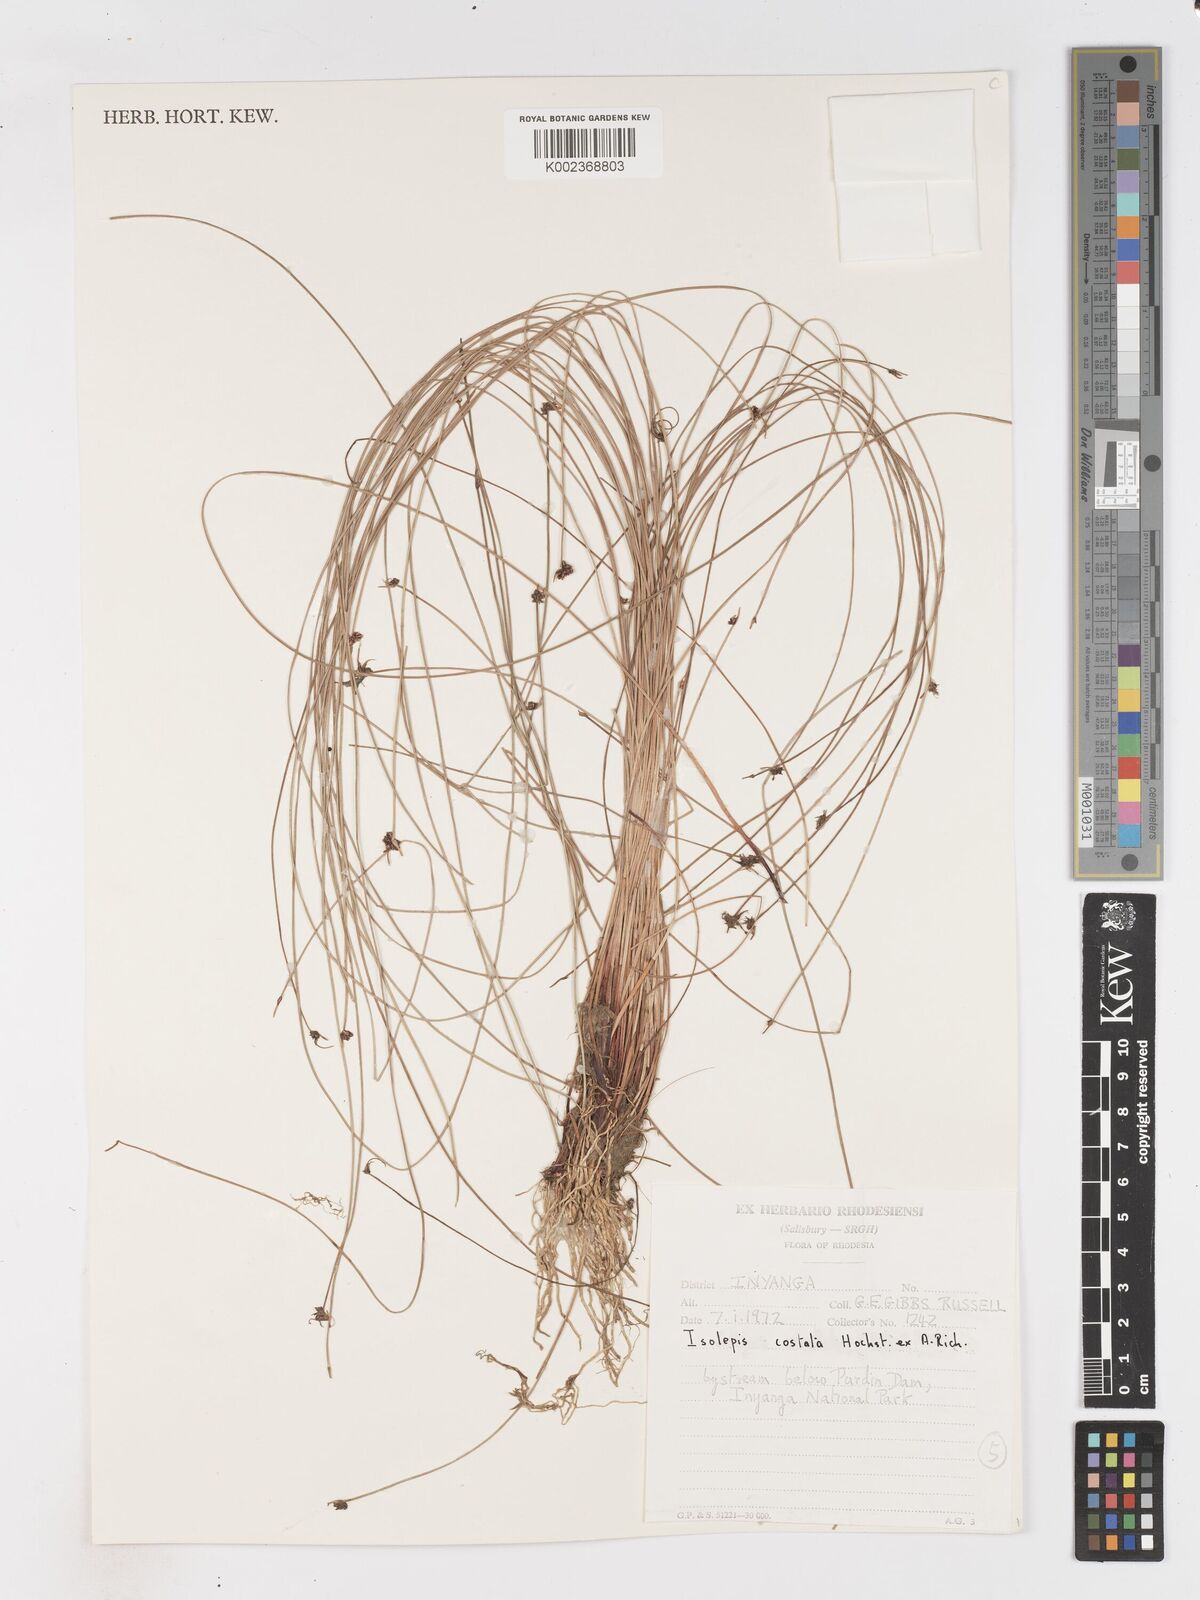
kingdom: Plantae
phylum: Tracheophyta
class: Liliopsida
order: Poales
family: Cyperaceae
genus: Isolepis
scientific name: Isolepis costata
